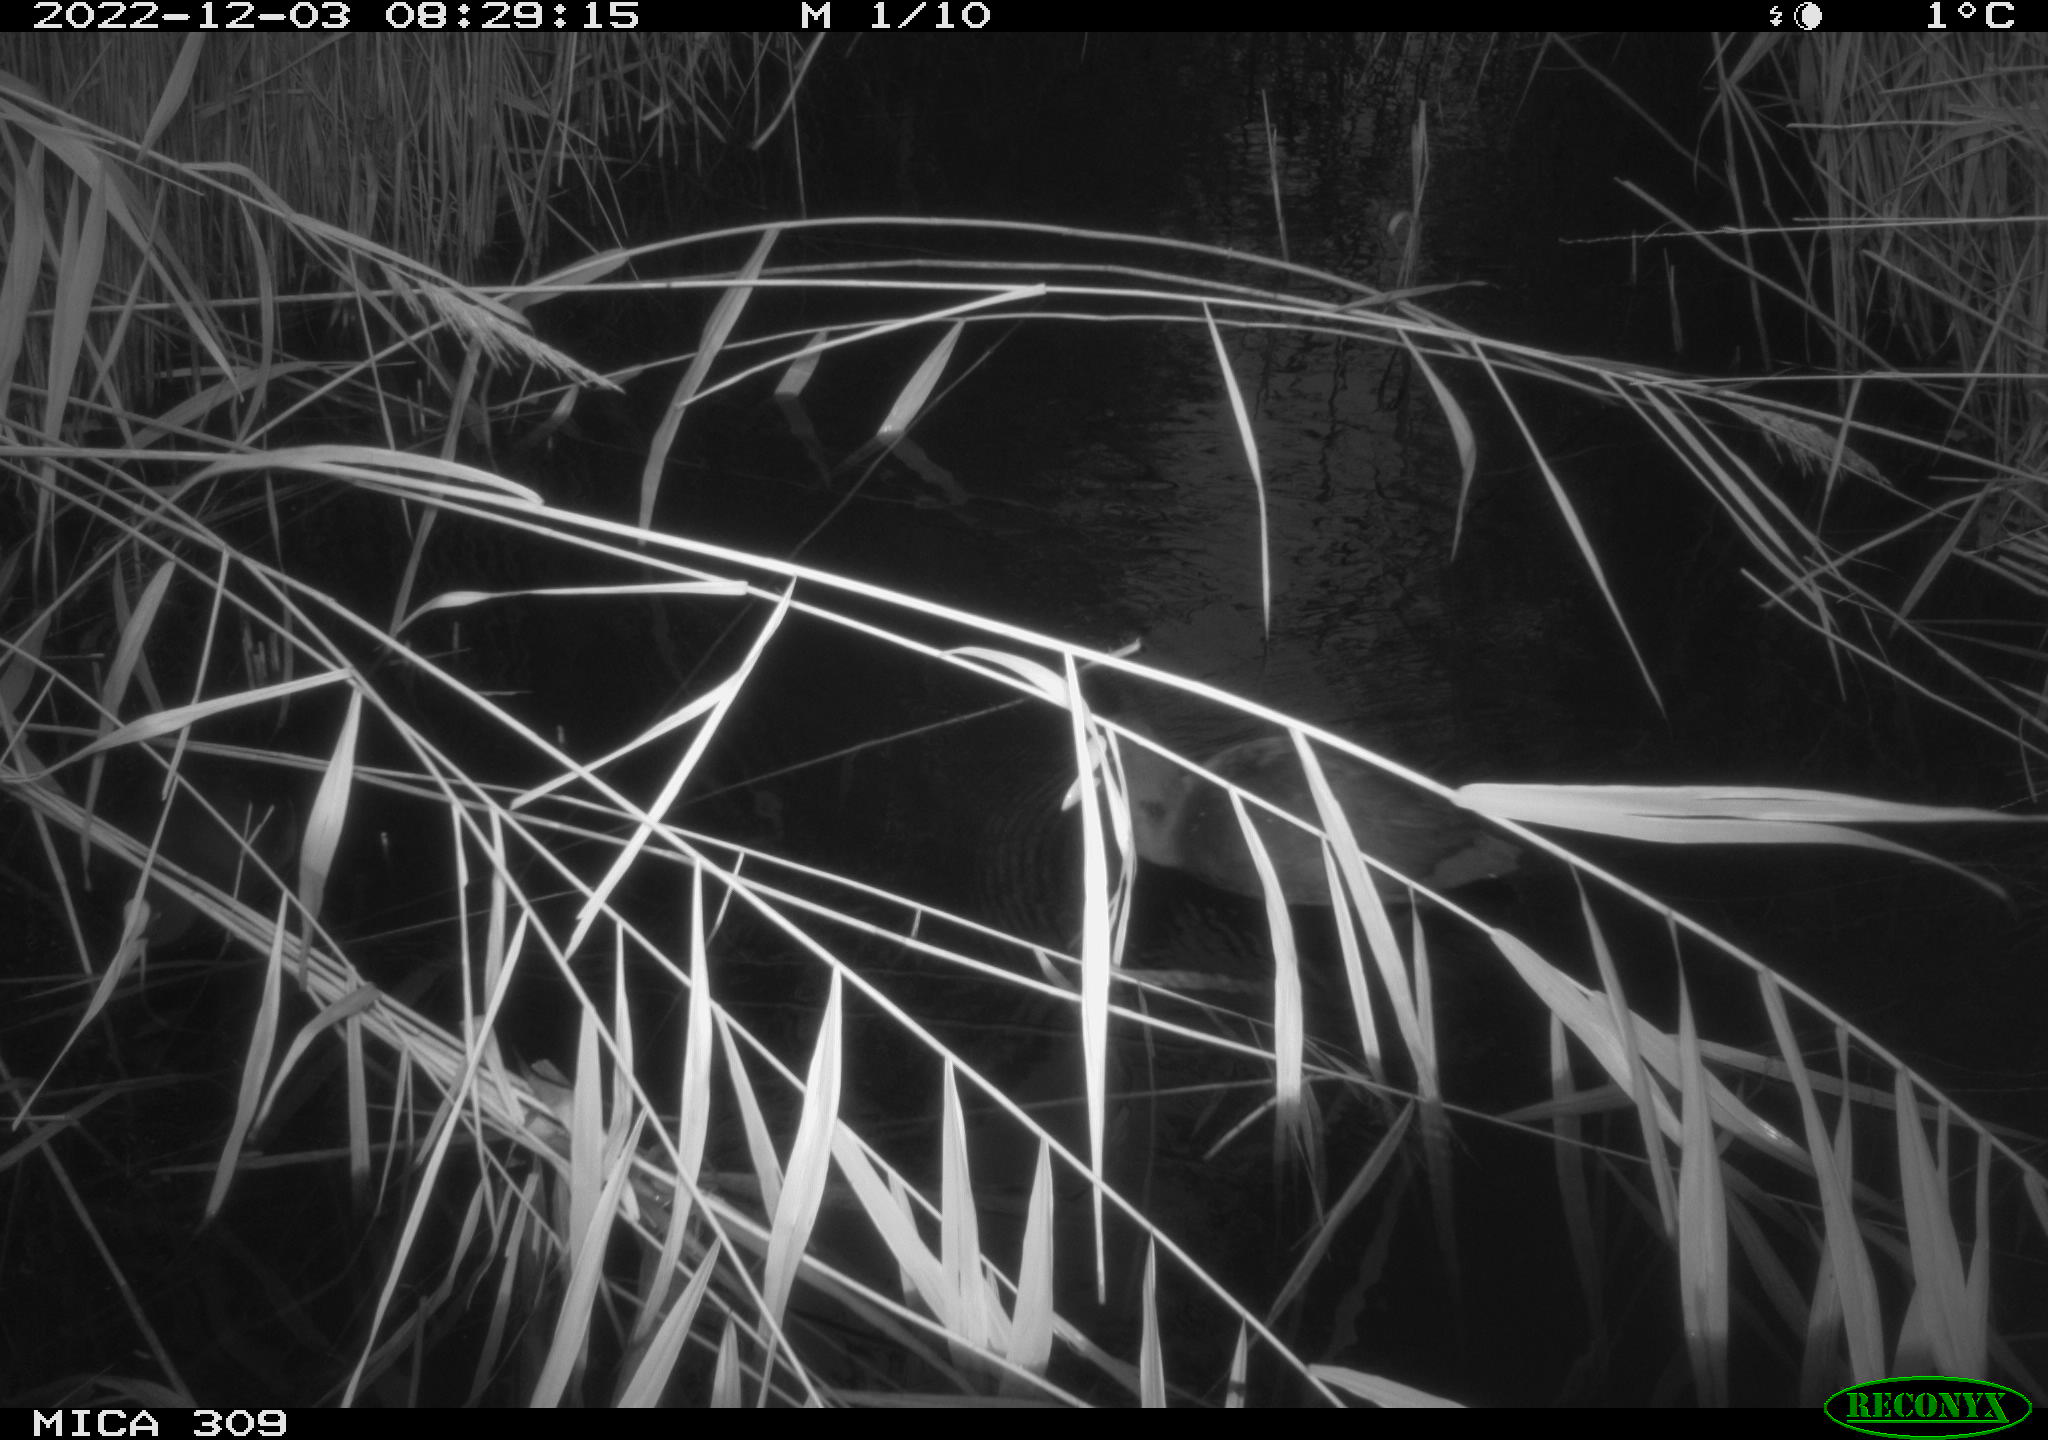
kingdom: Animalia
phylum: Chordata
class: Aves
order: Gruiformes
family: Rallidae
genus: Fulica
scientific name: Fulica atra
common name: Eurasian coot
